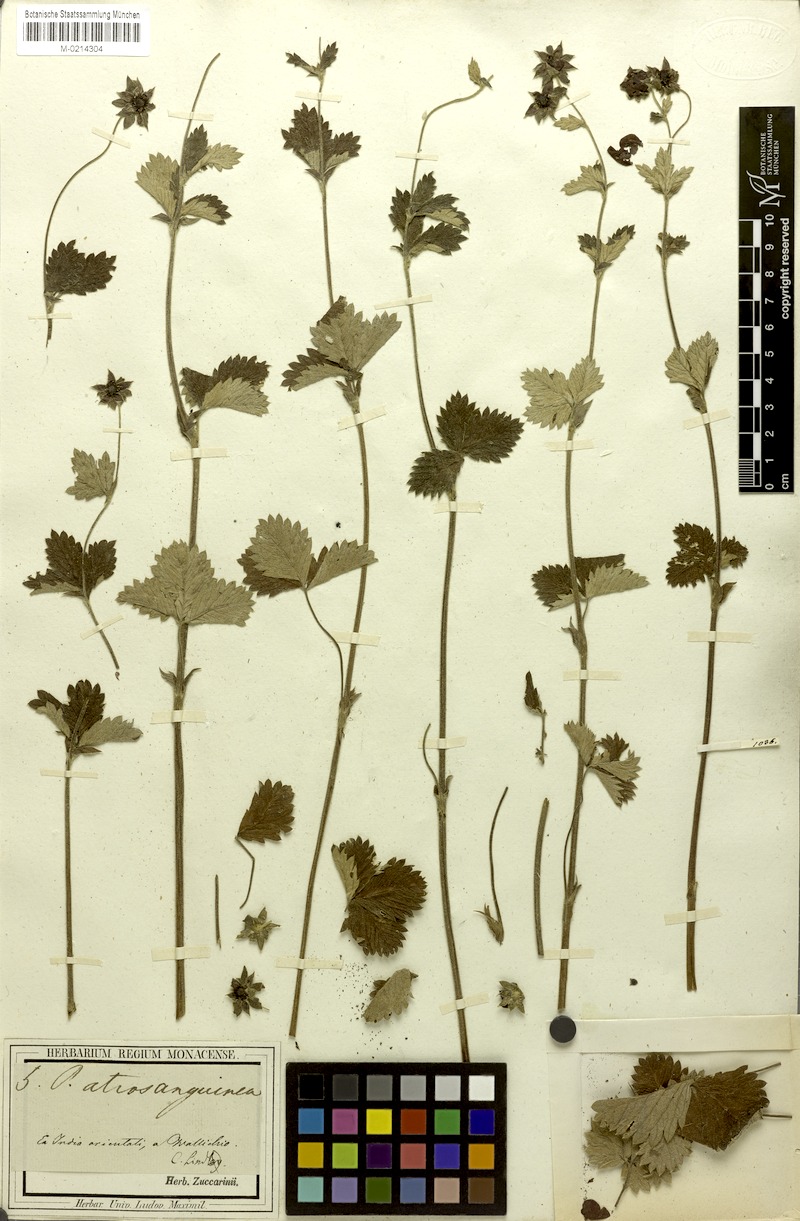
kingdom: Plantae
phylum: Tracheophyta
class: Magnoliopsida
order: Rosales
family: Rosaceae
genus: Potentilla
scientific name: Potentilla argyrophylla
